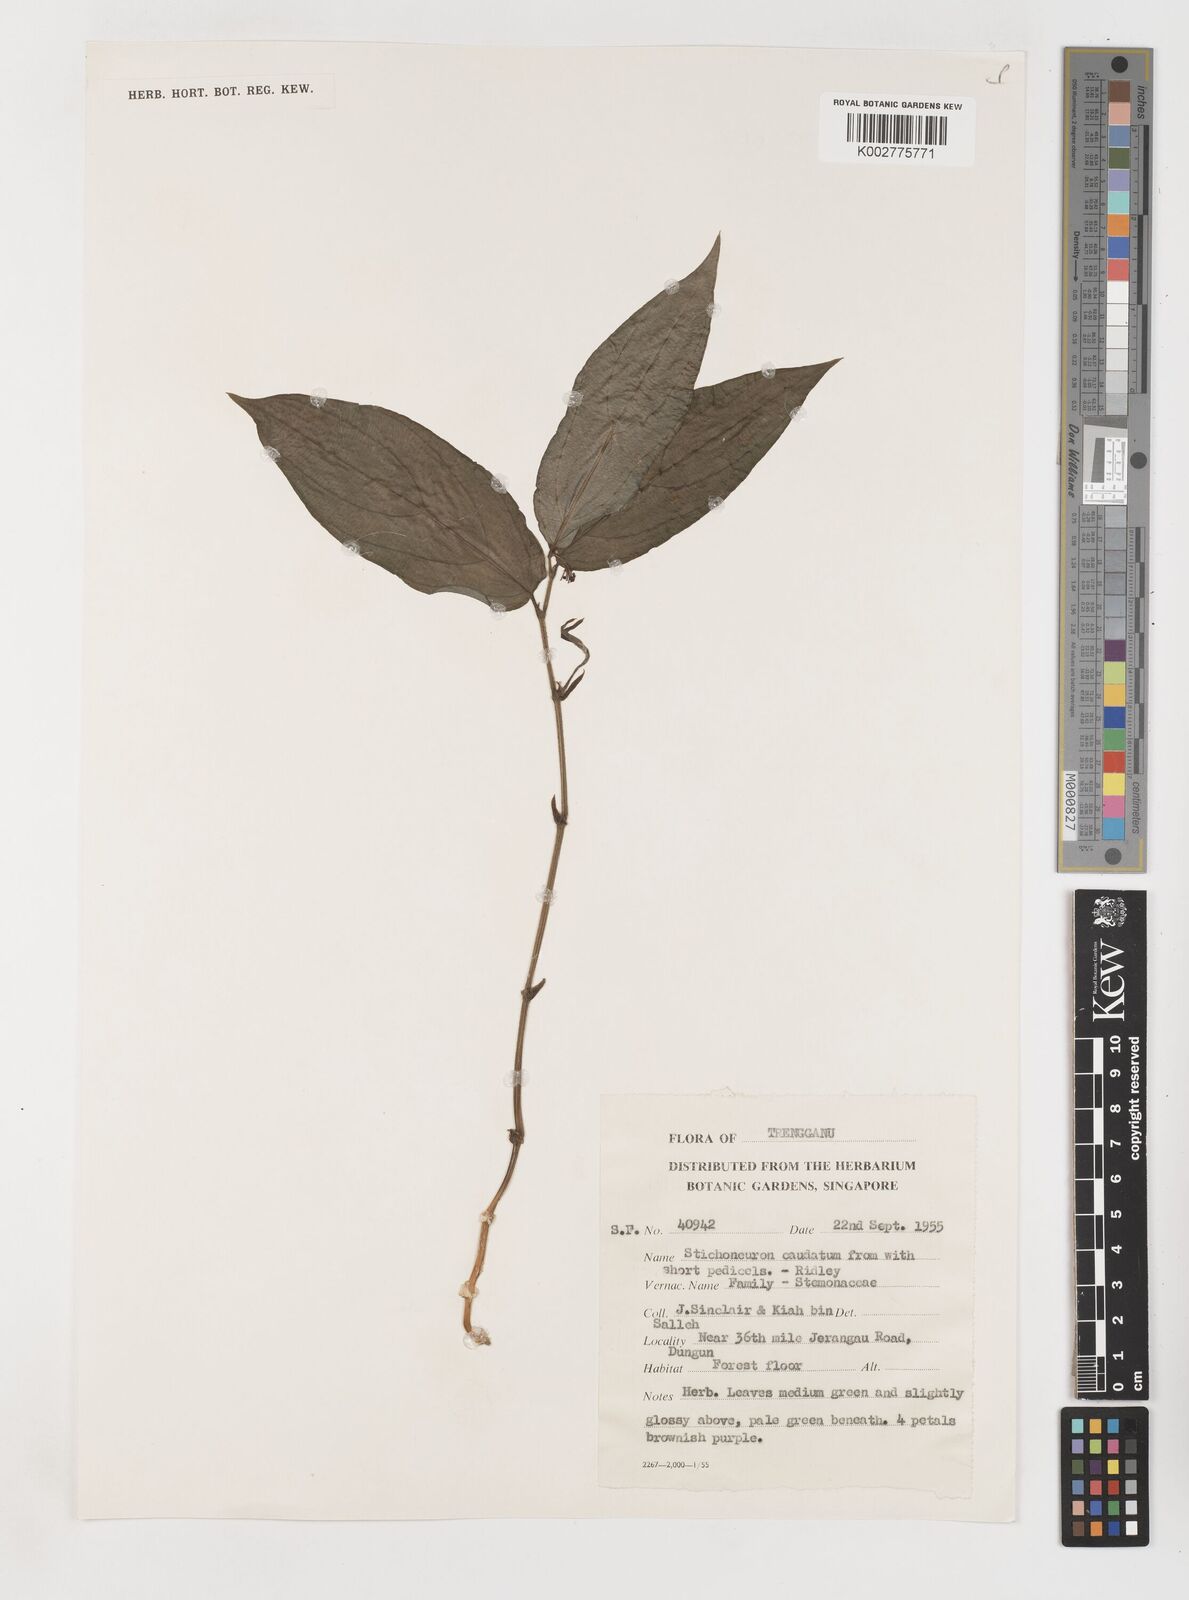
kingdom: Plantae
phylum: Tracheophyta
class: Liliopsida
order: Pandanales
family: Stemonaceae
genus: Stichoneuron
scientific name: Stichoneuron caudatum
